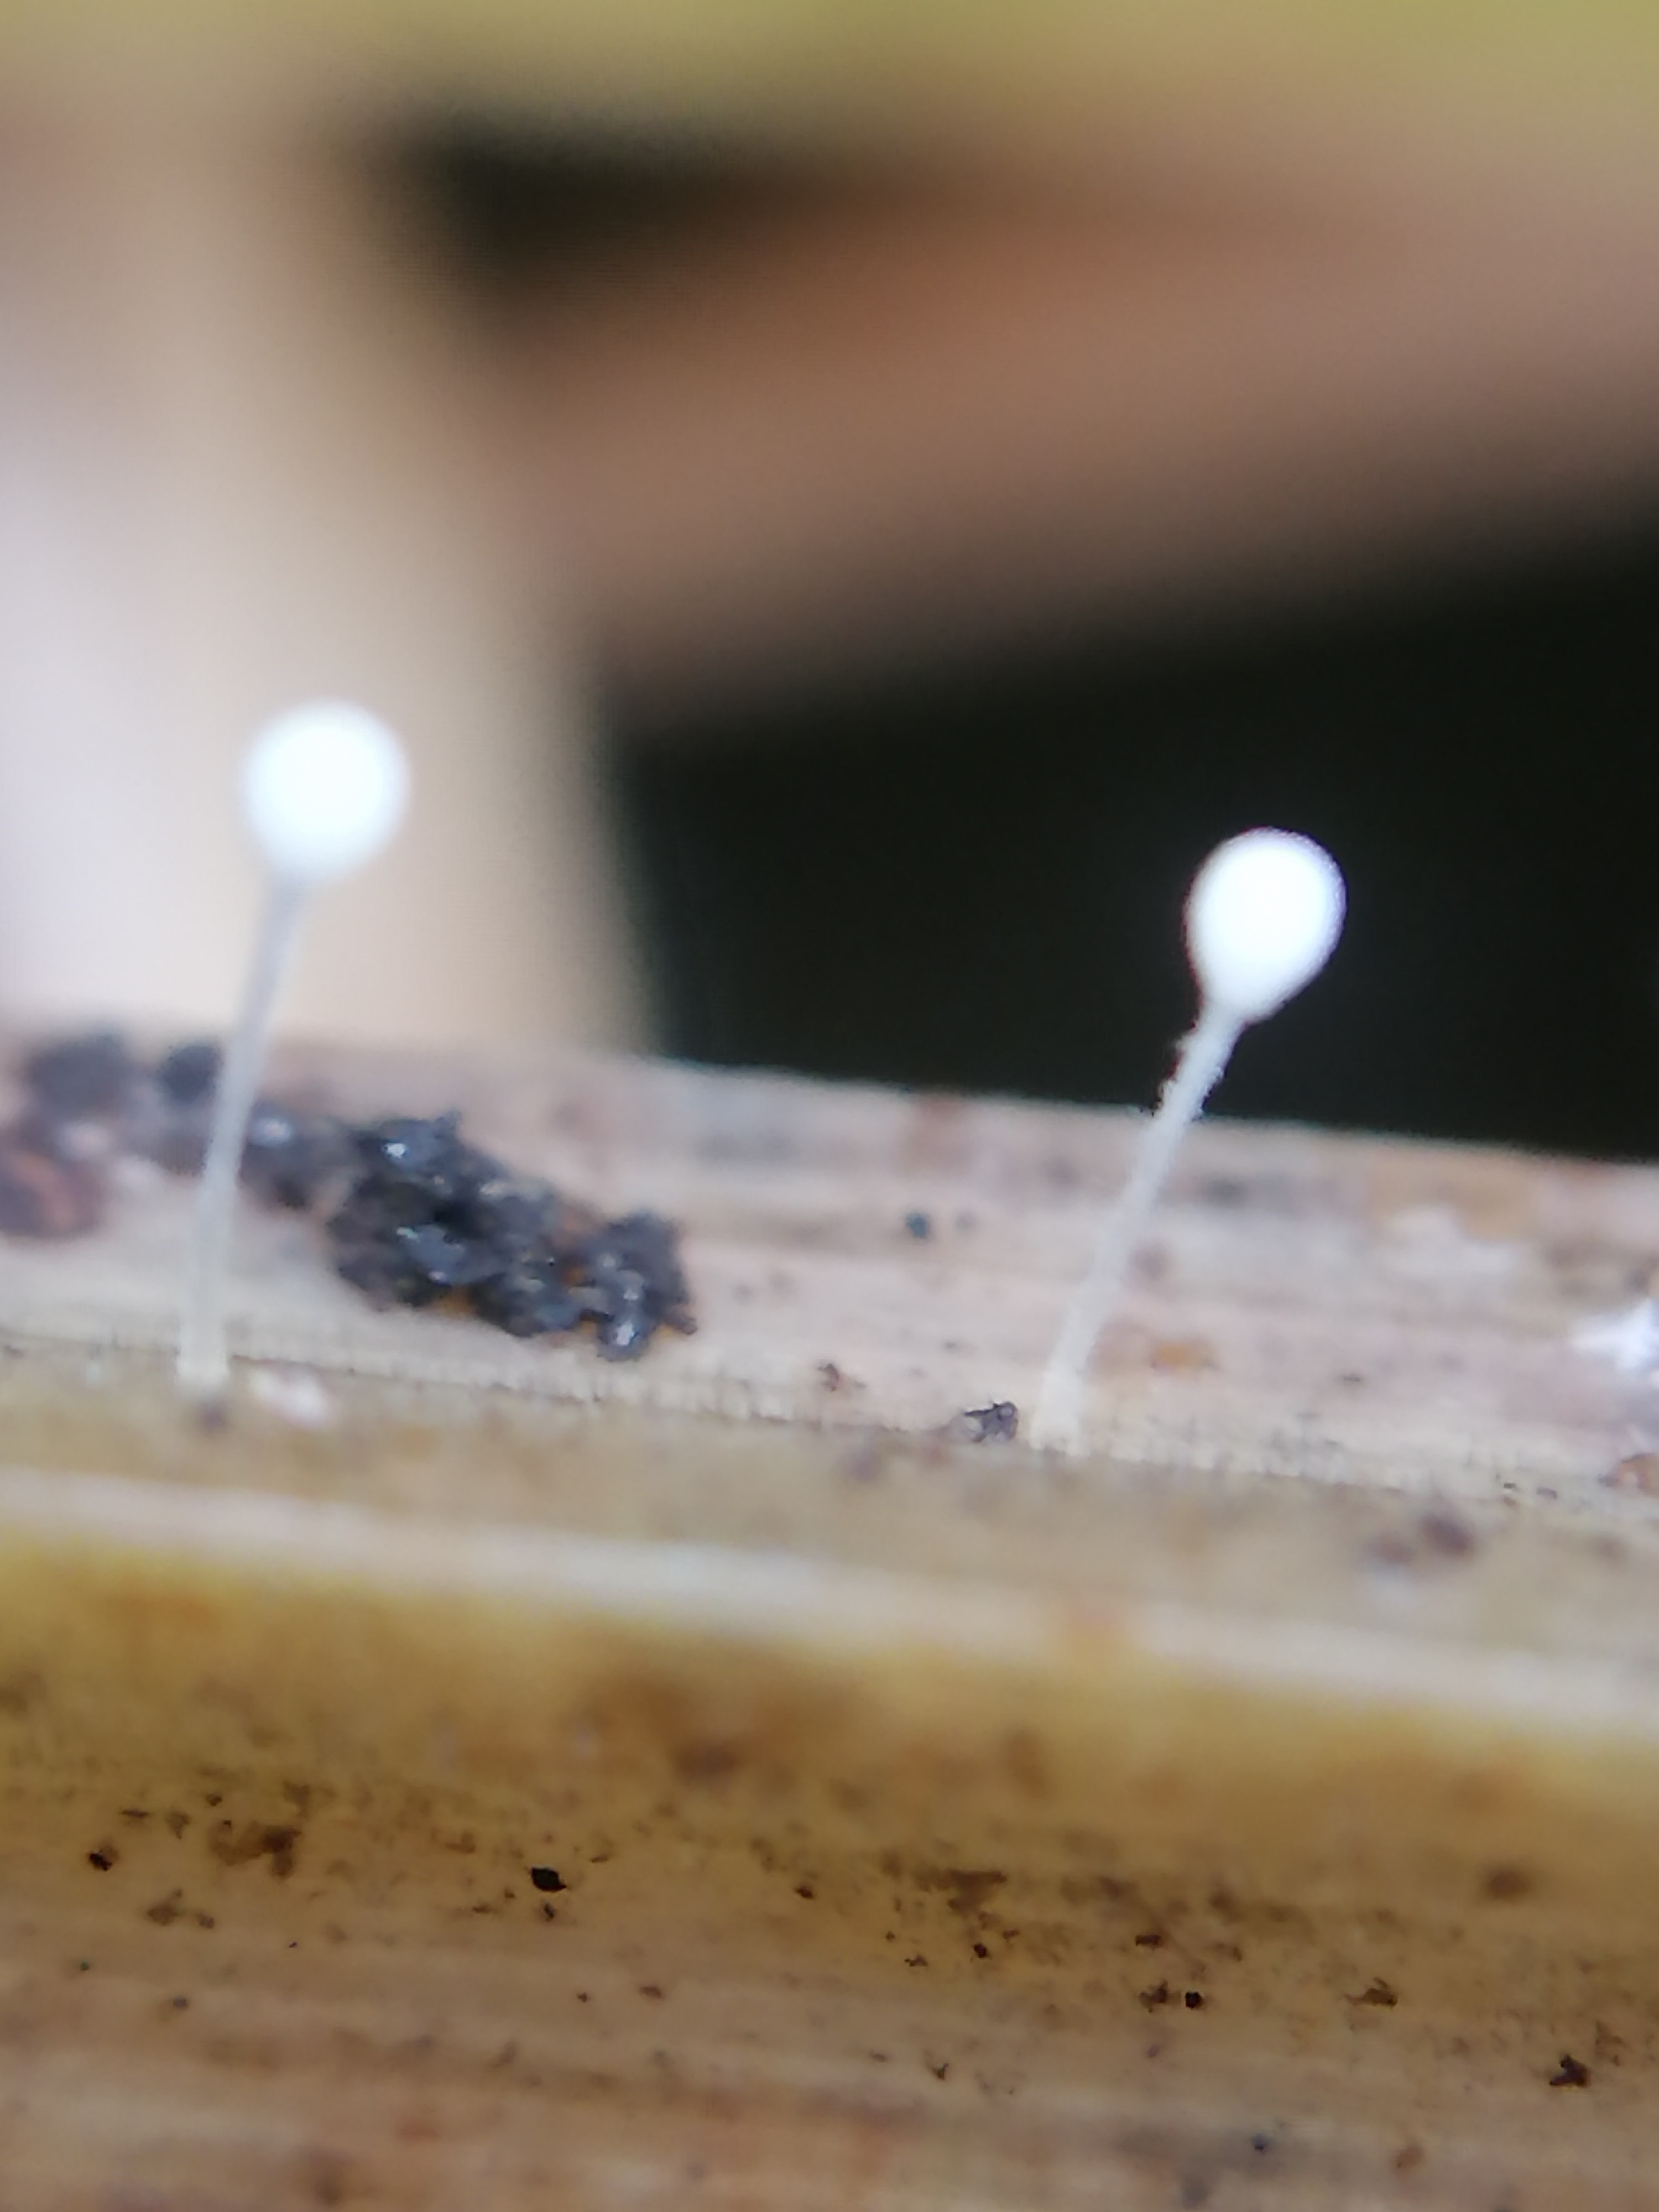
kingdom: Fungi
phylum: Basidiomycota
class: Agaricomycetes
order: Agaricales
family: Typhulaceae
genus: Typhula
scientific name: Typhula
